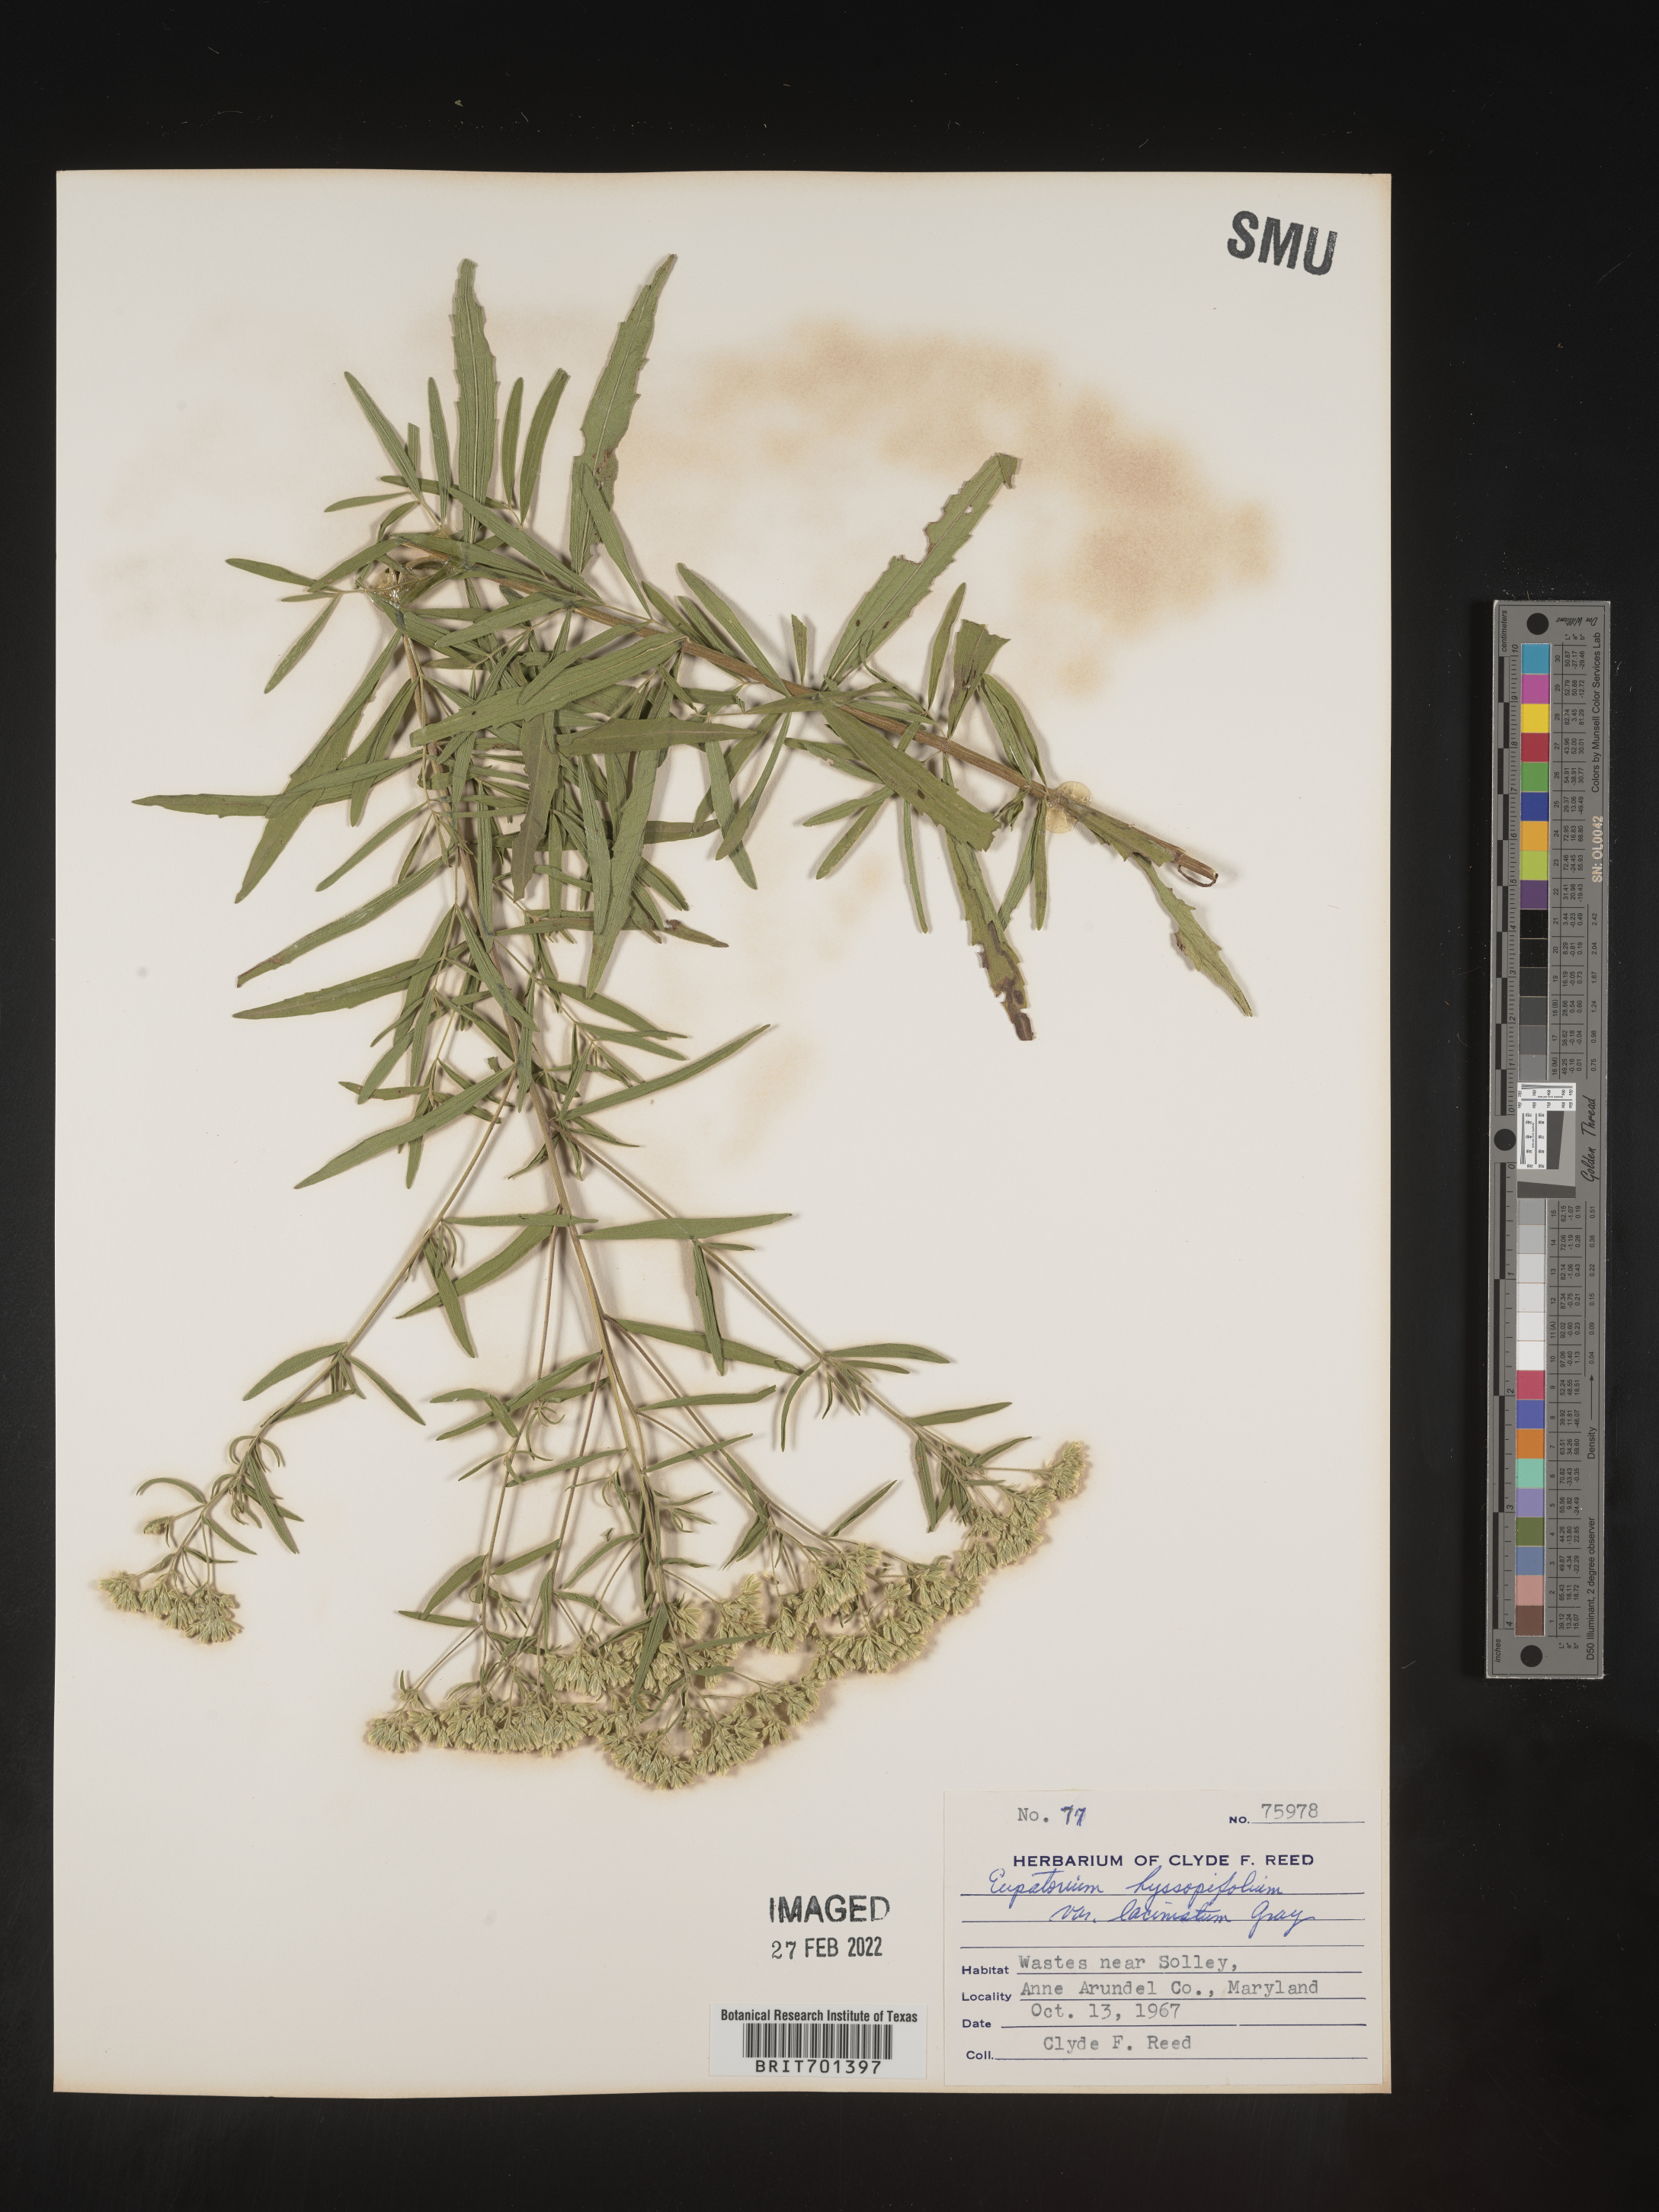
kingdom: Plantae
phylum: Tracheophyta
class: Magnoliopsida
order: Asterales
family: Asteraceae
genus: Eupatorium
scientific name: Eupatorium hyssopifolium
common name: Hyssop-leaf thoroughwort
